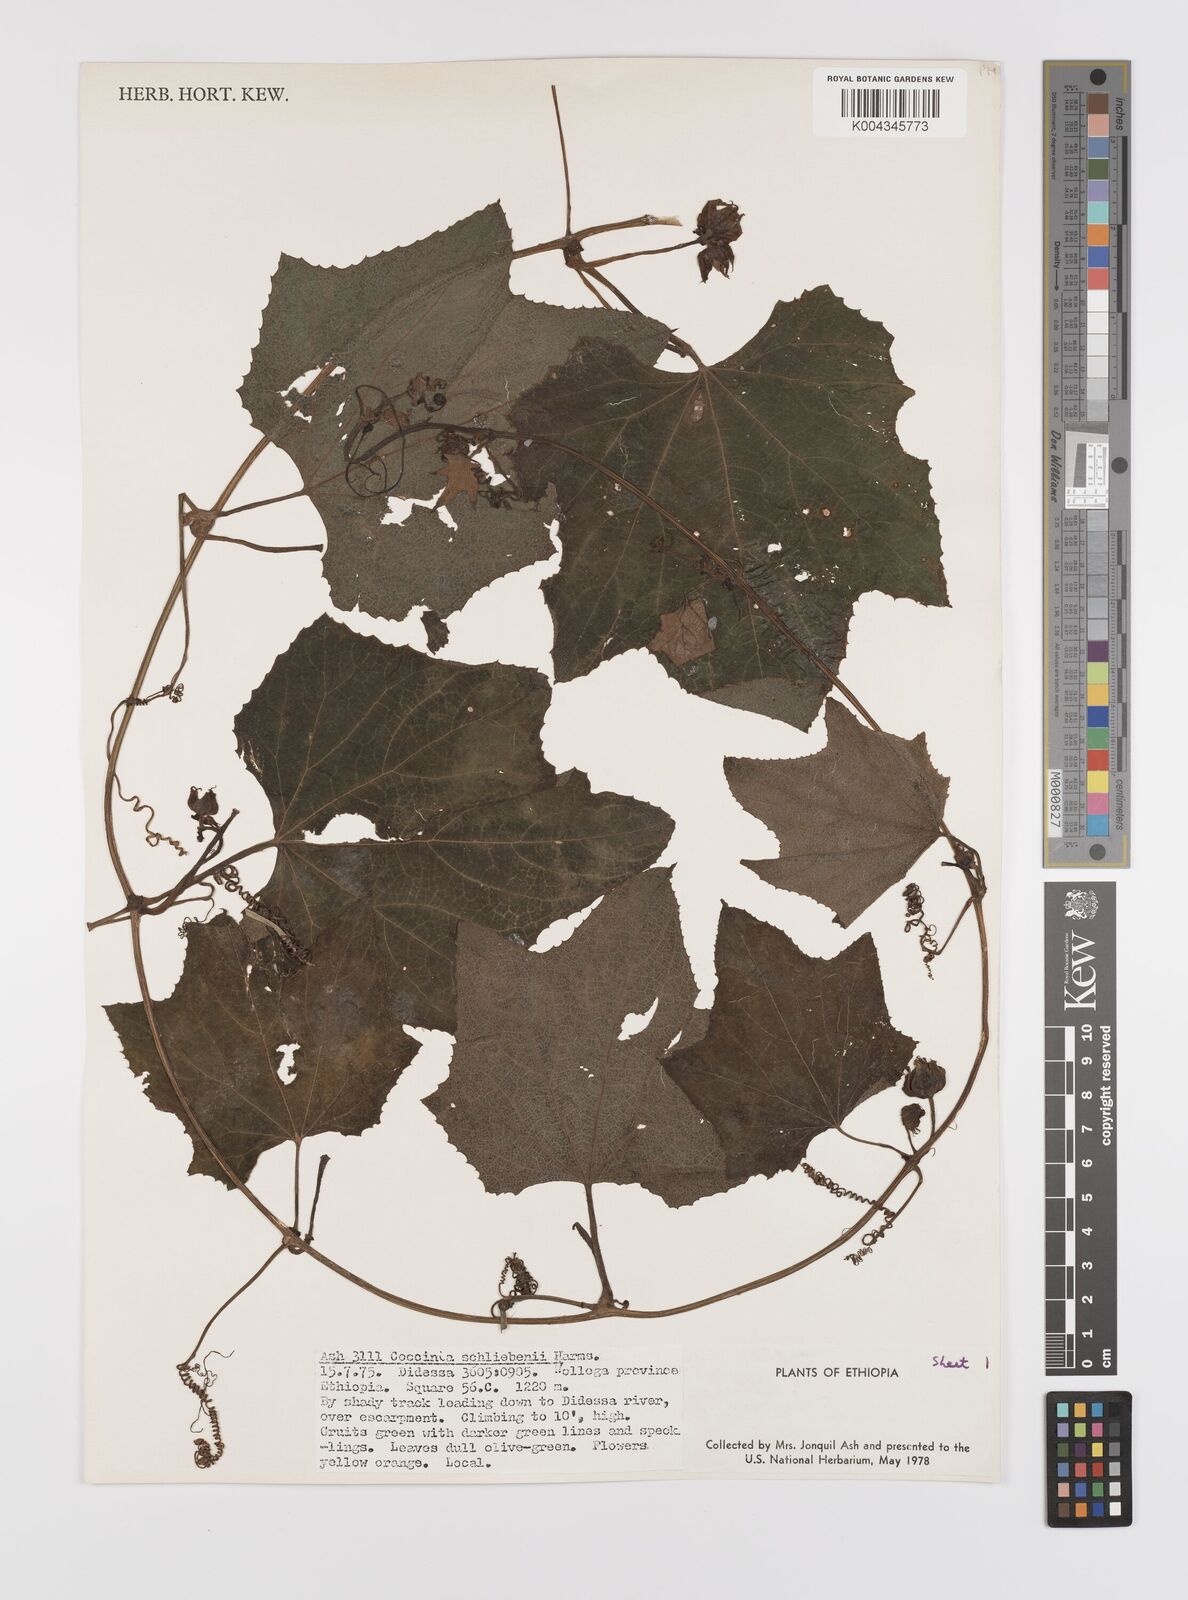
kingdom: Plantae
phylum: Tracheophyta
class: Magnoliopsida
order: Cucurbitales
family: Cucurbitaceae
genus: Coccinia
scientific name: Coccinia schliebenii
